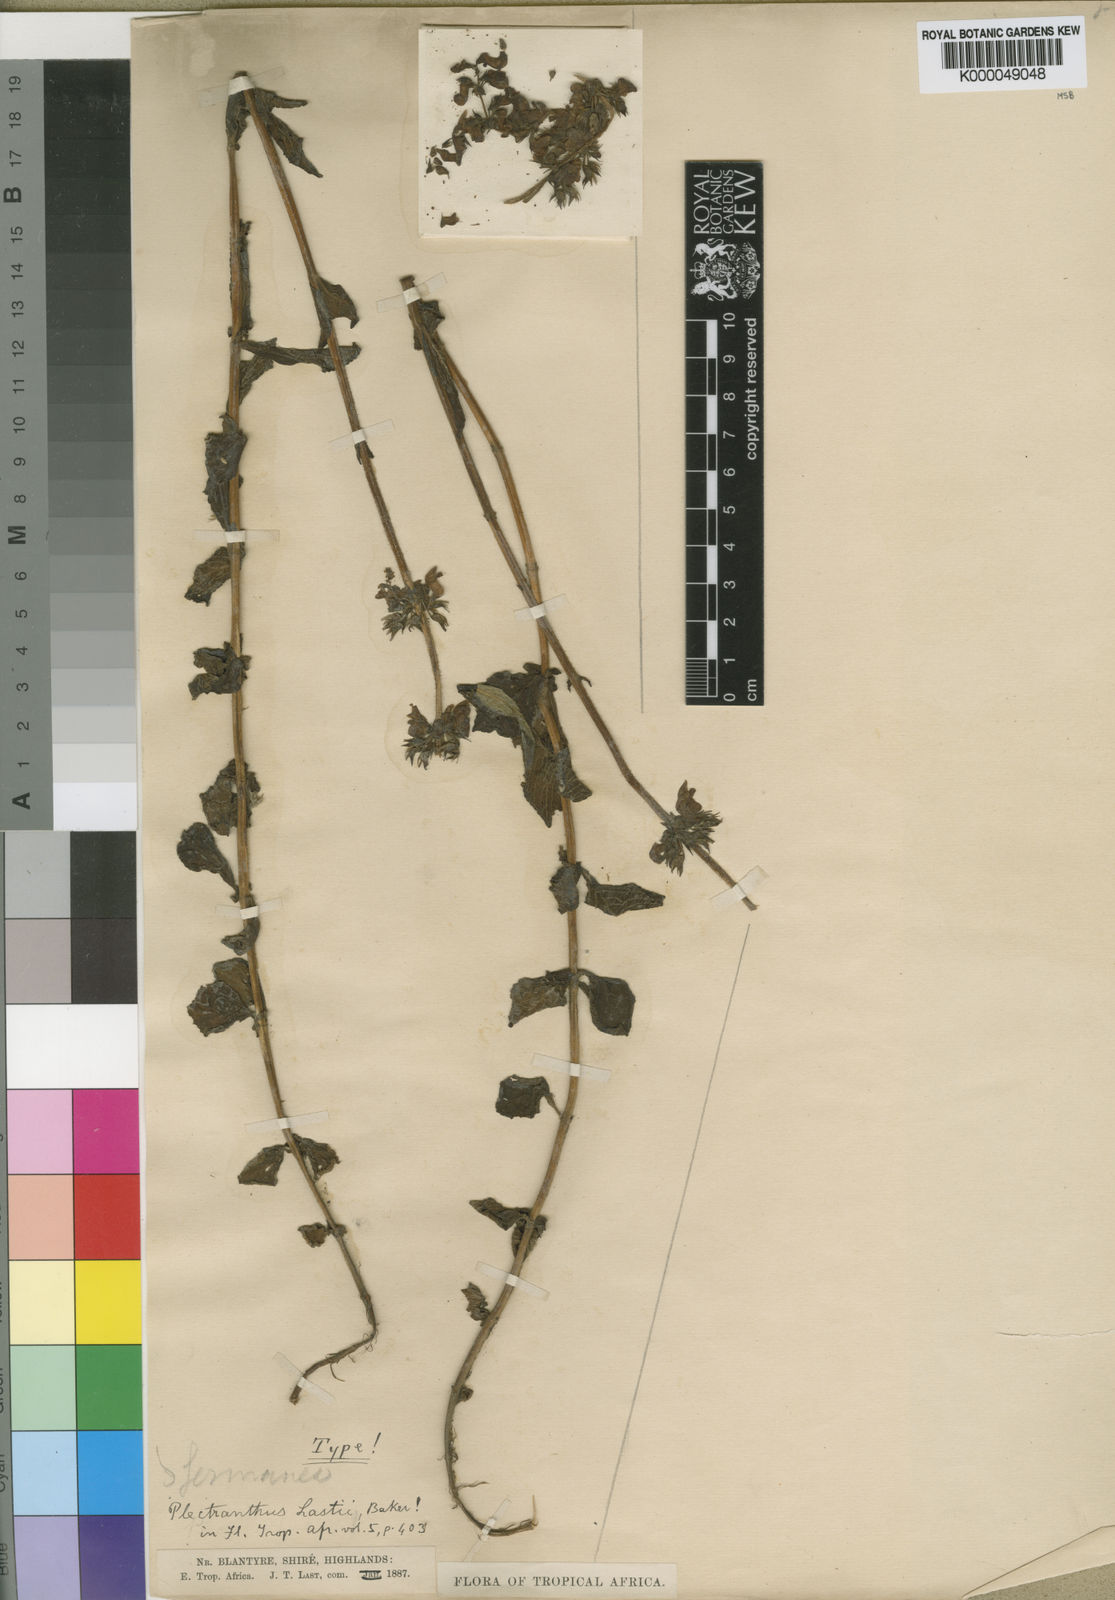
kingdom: Plantae
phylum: Tracheophyta
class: Magnoliopsida
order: Lamiales
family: Lamiaceae
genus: Coleus
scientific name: Coleus zombensis
